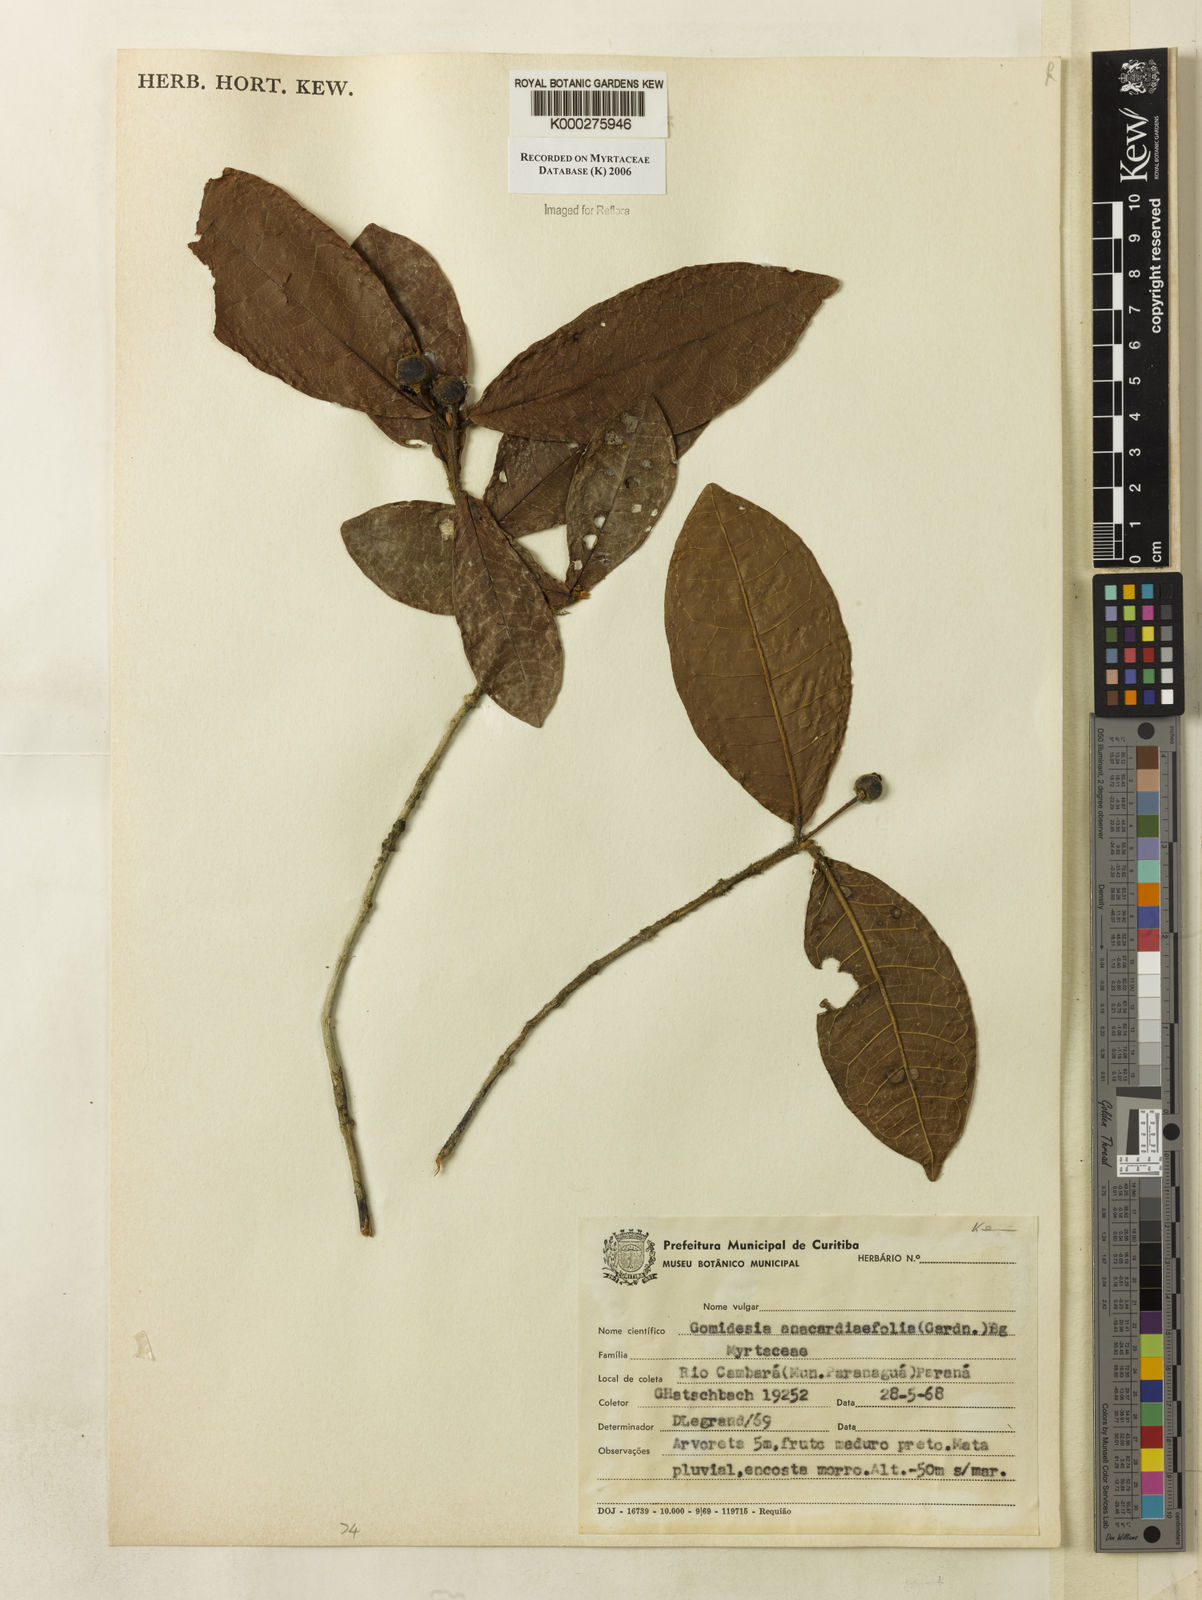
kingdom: Plantae
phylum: Tracheophyta
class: Magnoliopsida
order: Myrtales
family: Myrtaceae
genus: Myrcia
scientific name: Myrcia anacardiifolia
